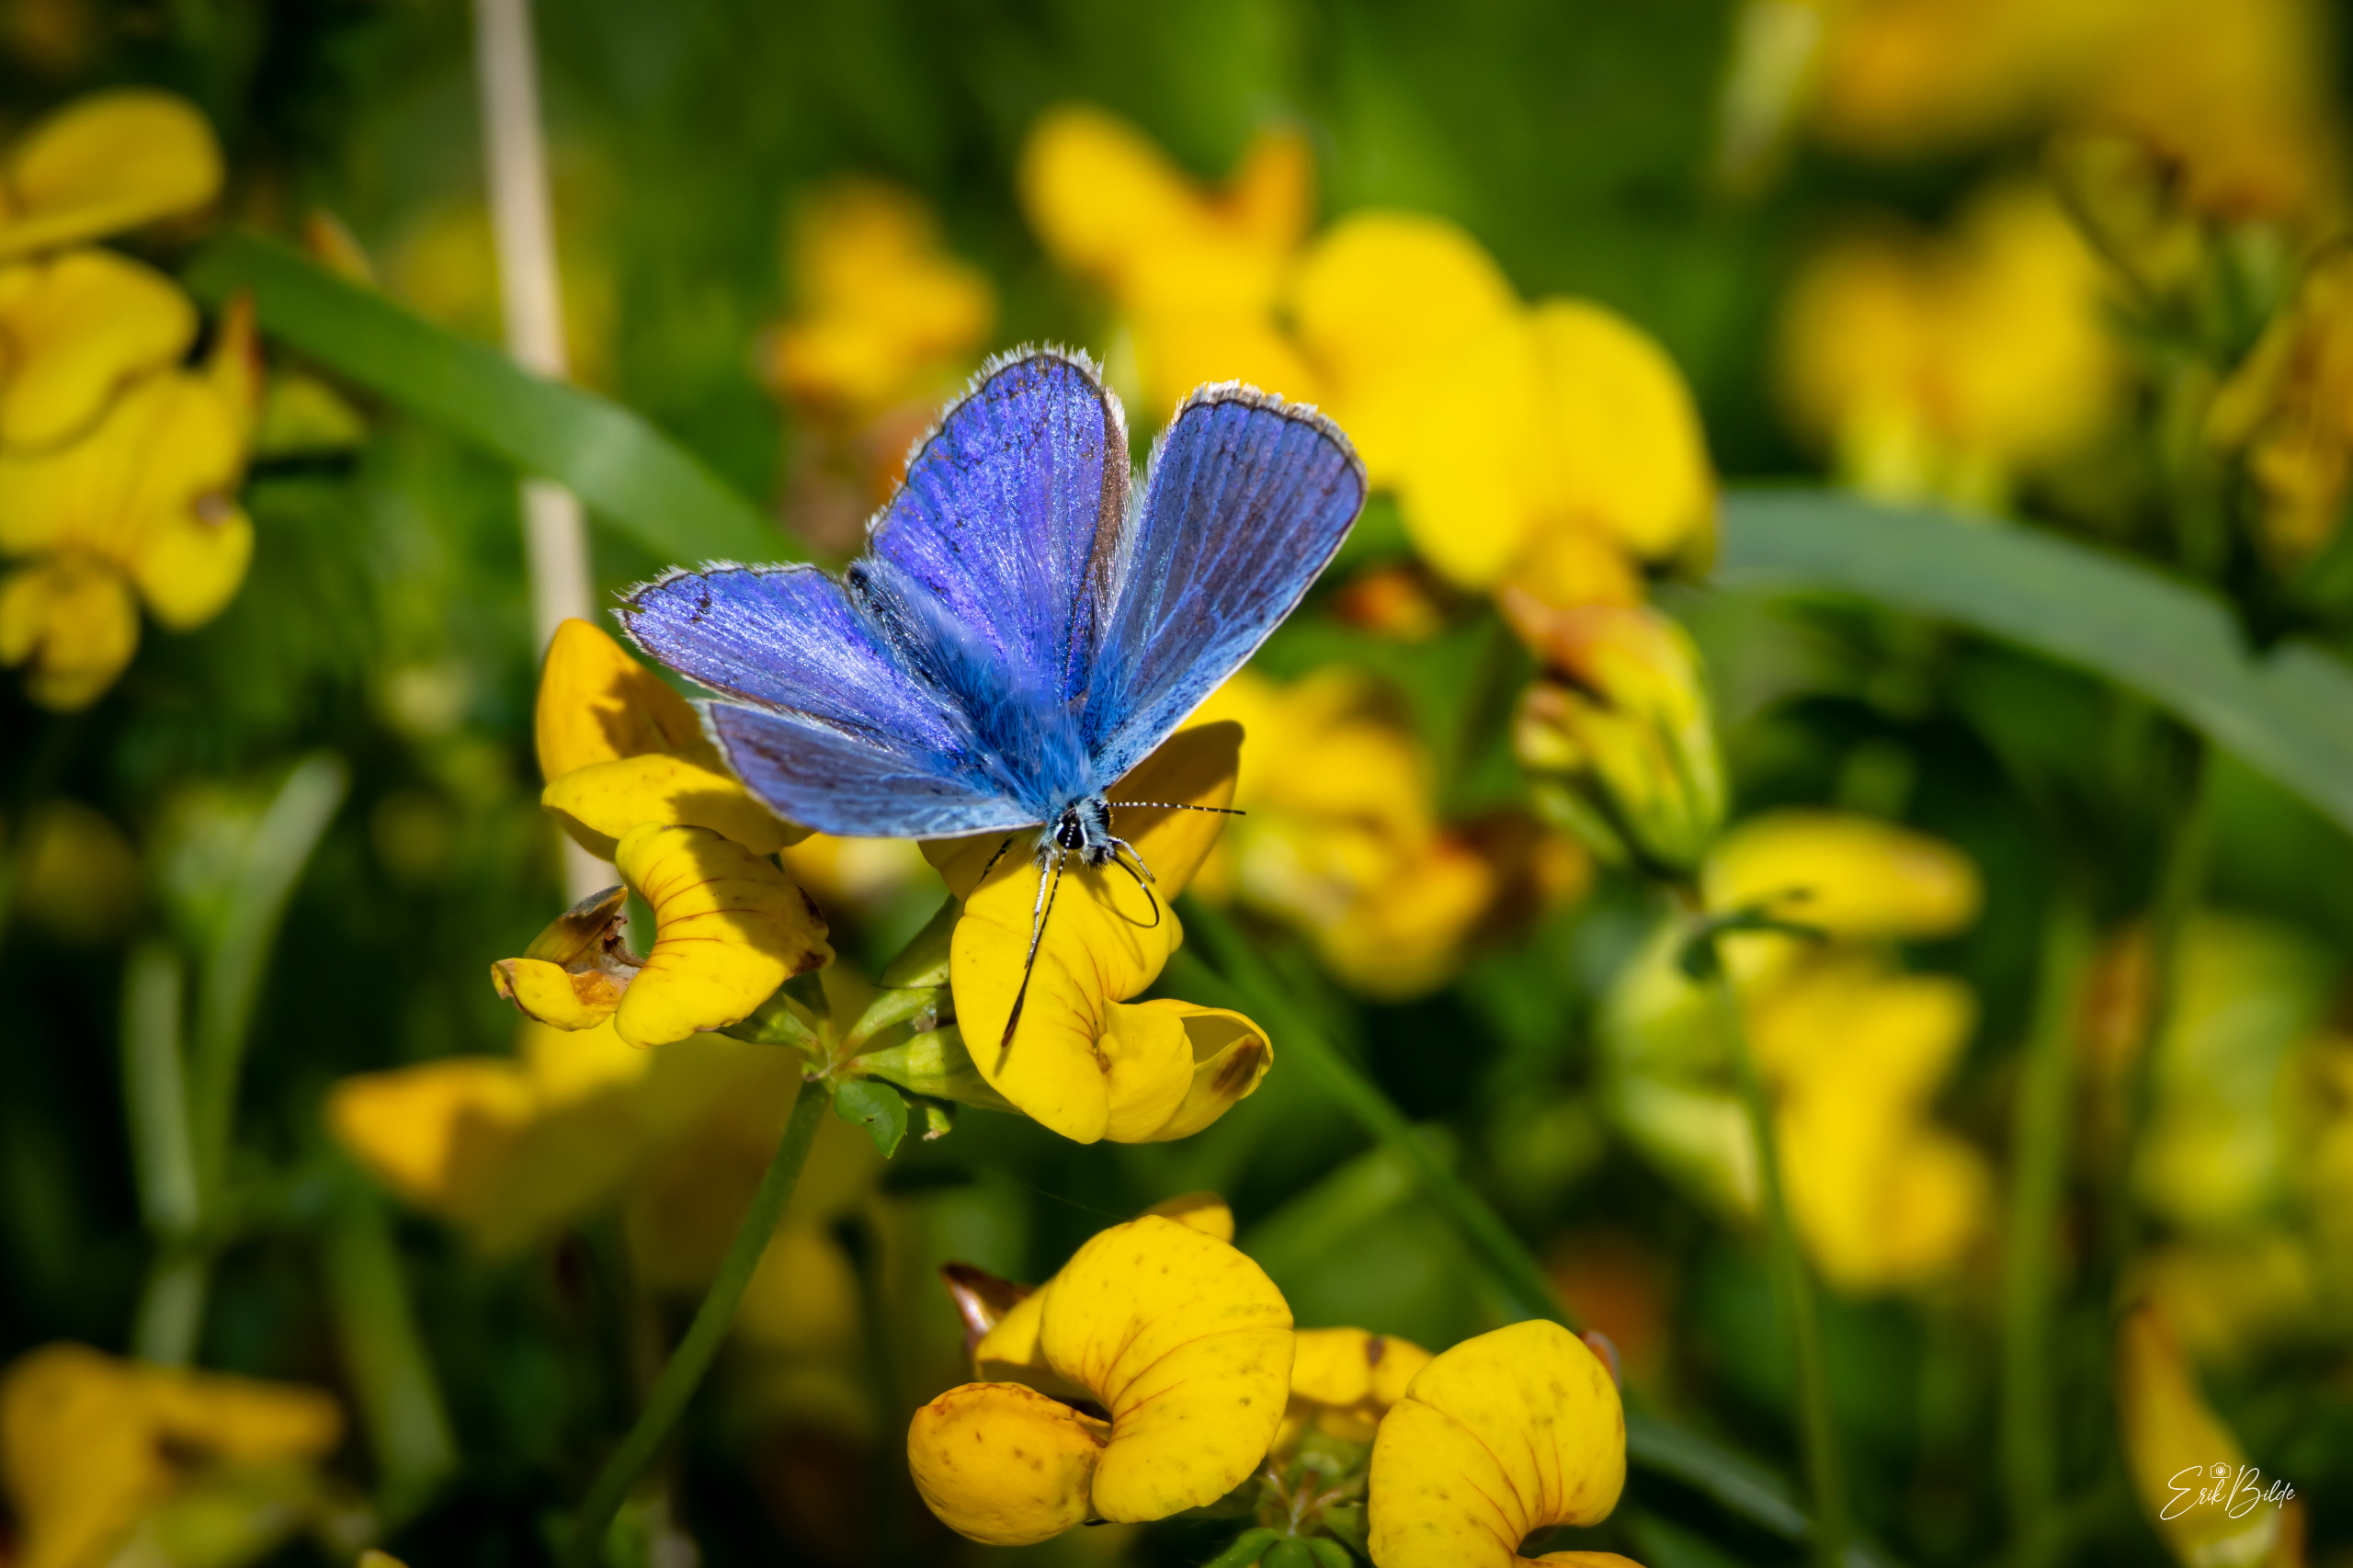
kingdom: Animalia
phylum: Arthropoda
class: Insecta
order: Lepidoptera
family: Lycaenidae
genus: Polyommatus
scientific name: Polyommatus icarus
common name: Almindelig blåfugl
